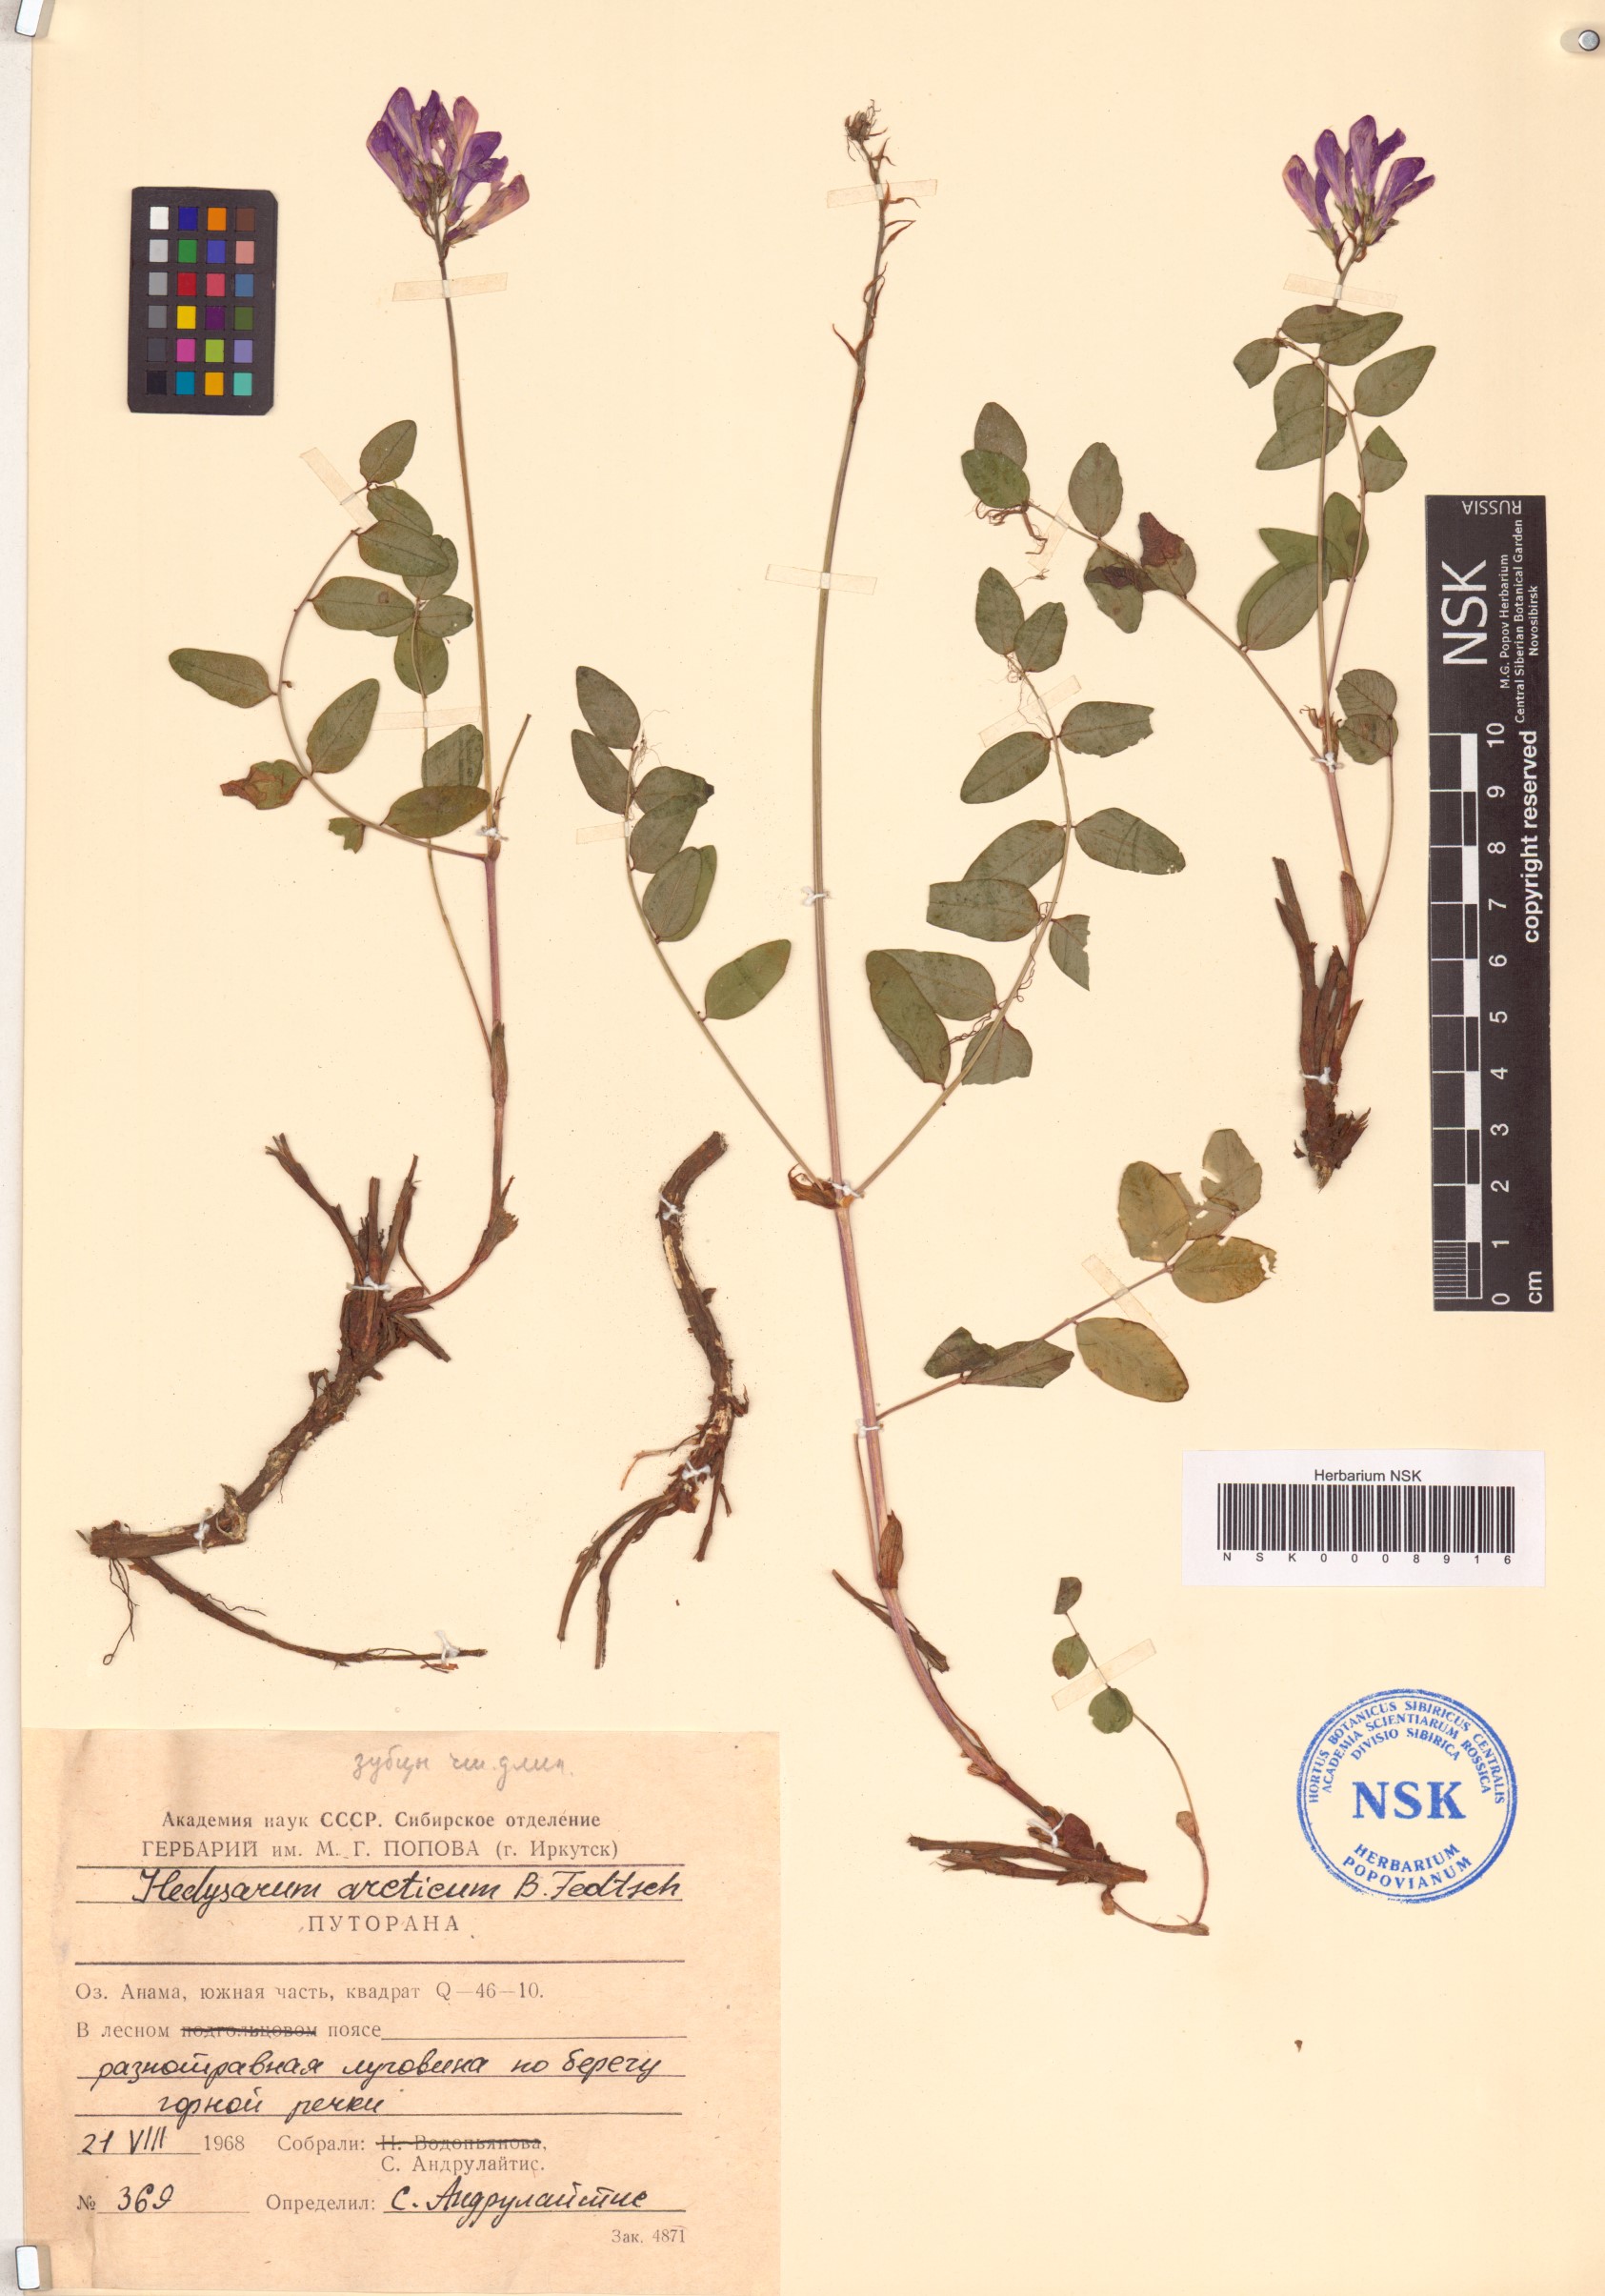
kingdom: Plantae
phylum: Tracheophyta
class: Magnoliopsida
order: Fabales
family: Fabaceae
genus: Hedysarum
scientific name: Hedysarum hedysaroides
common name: Alpine french-honeysuckle
